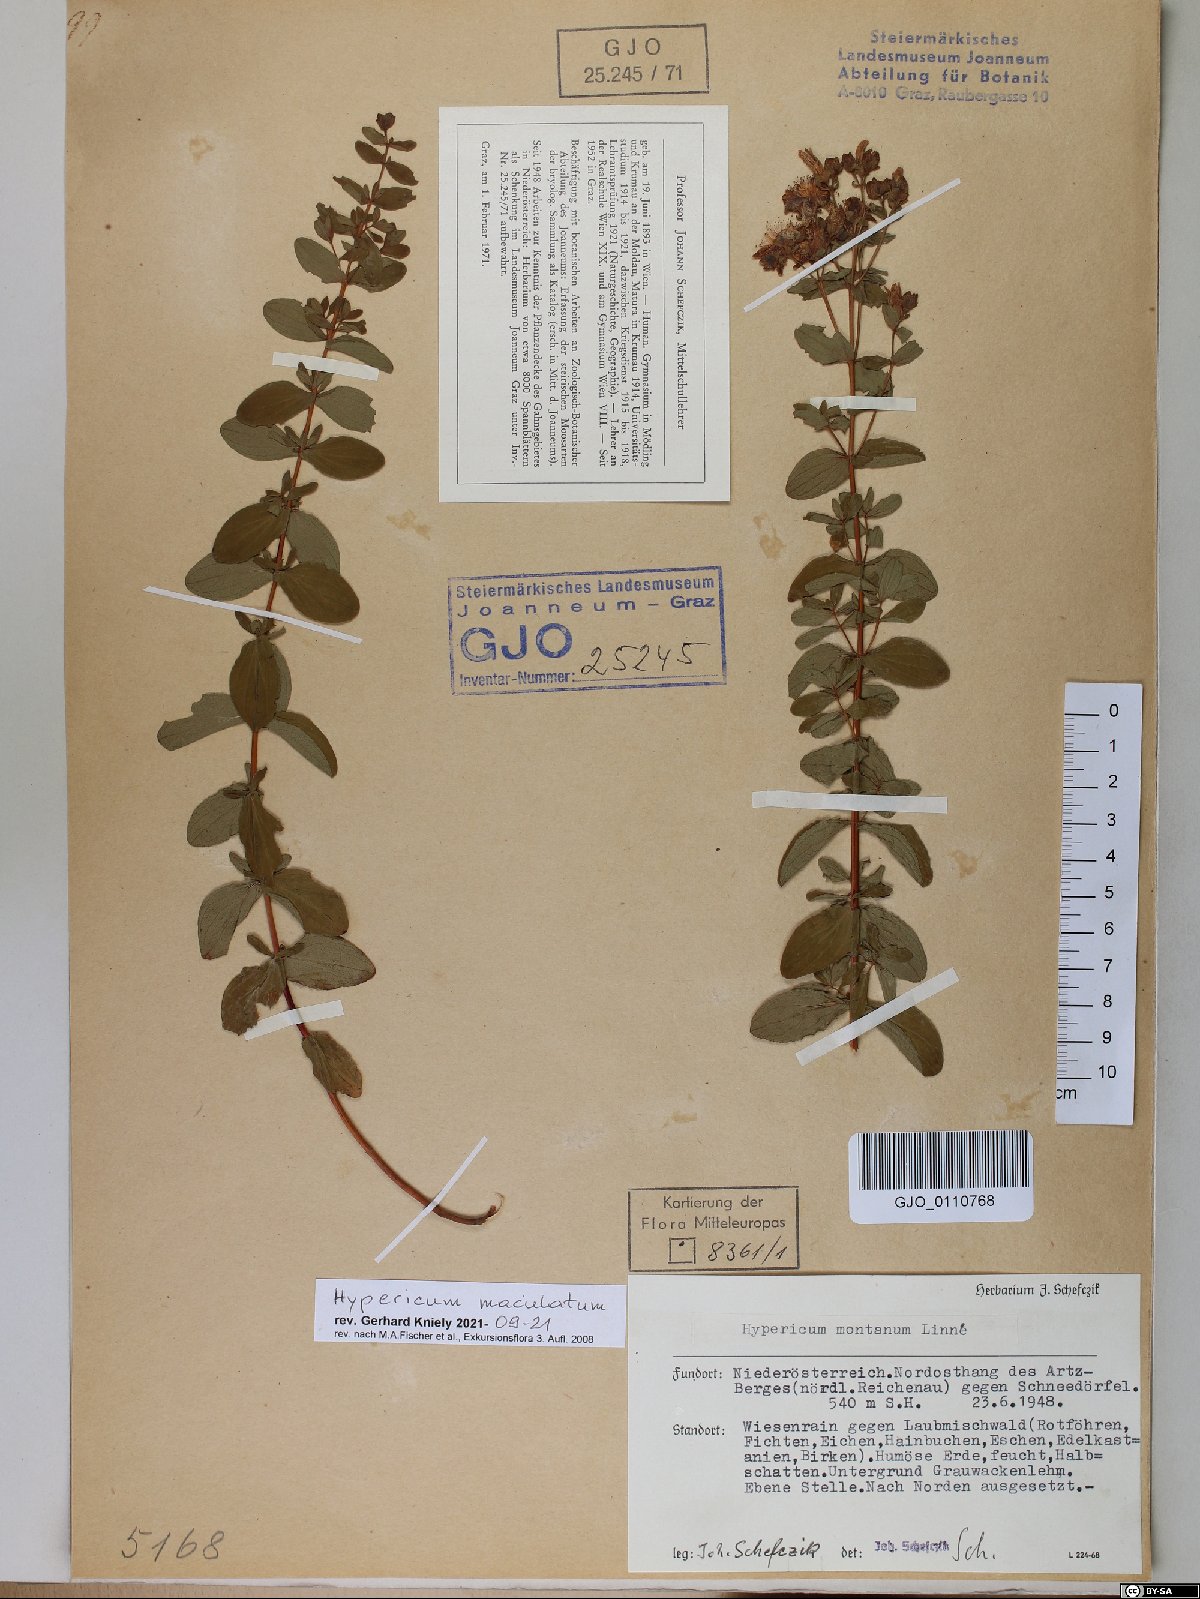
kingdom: Plantae
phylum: Tracheophyta
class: Magnoliopsida
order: Malpighiales
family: Hypericaceae
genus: Hypericum
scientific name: Hypericum maculatum
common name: Imperforate st. john's-wort
